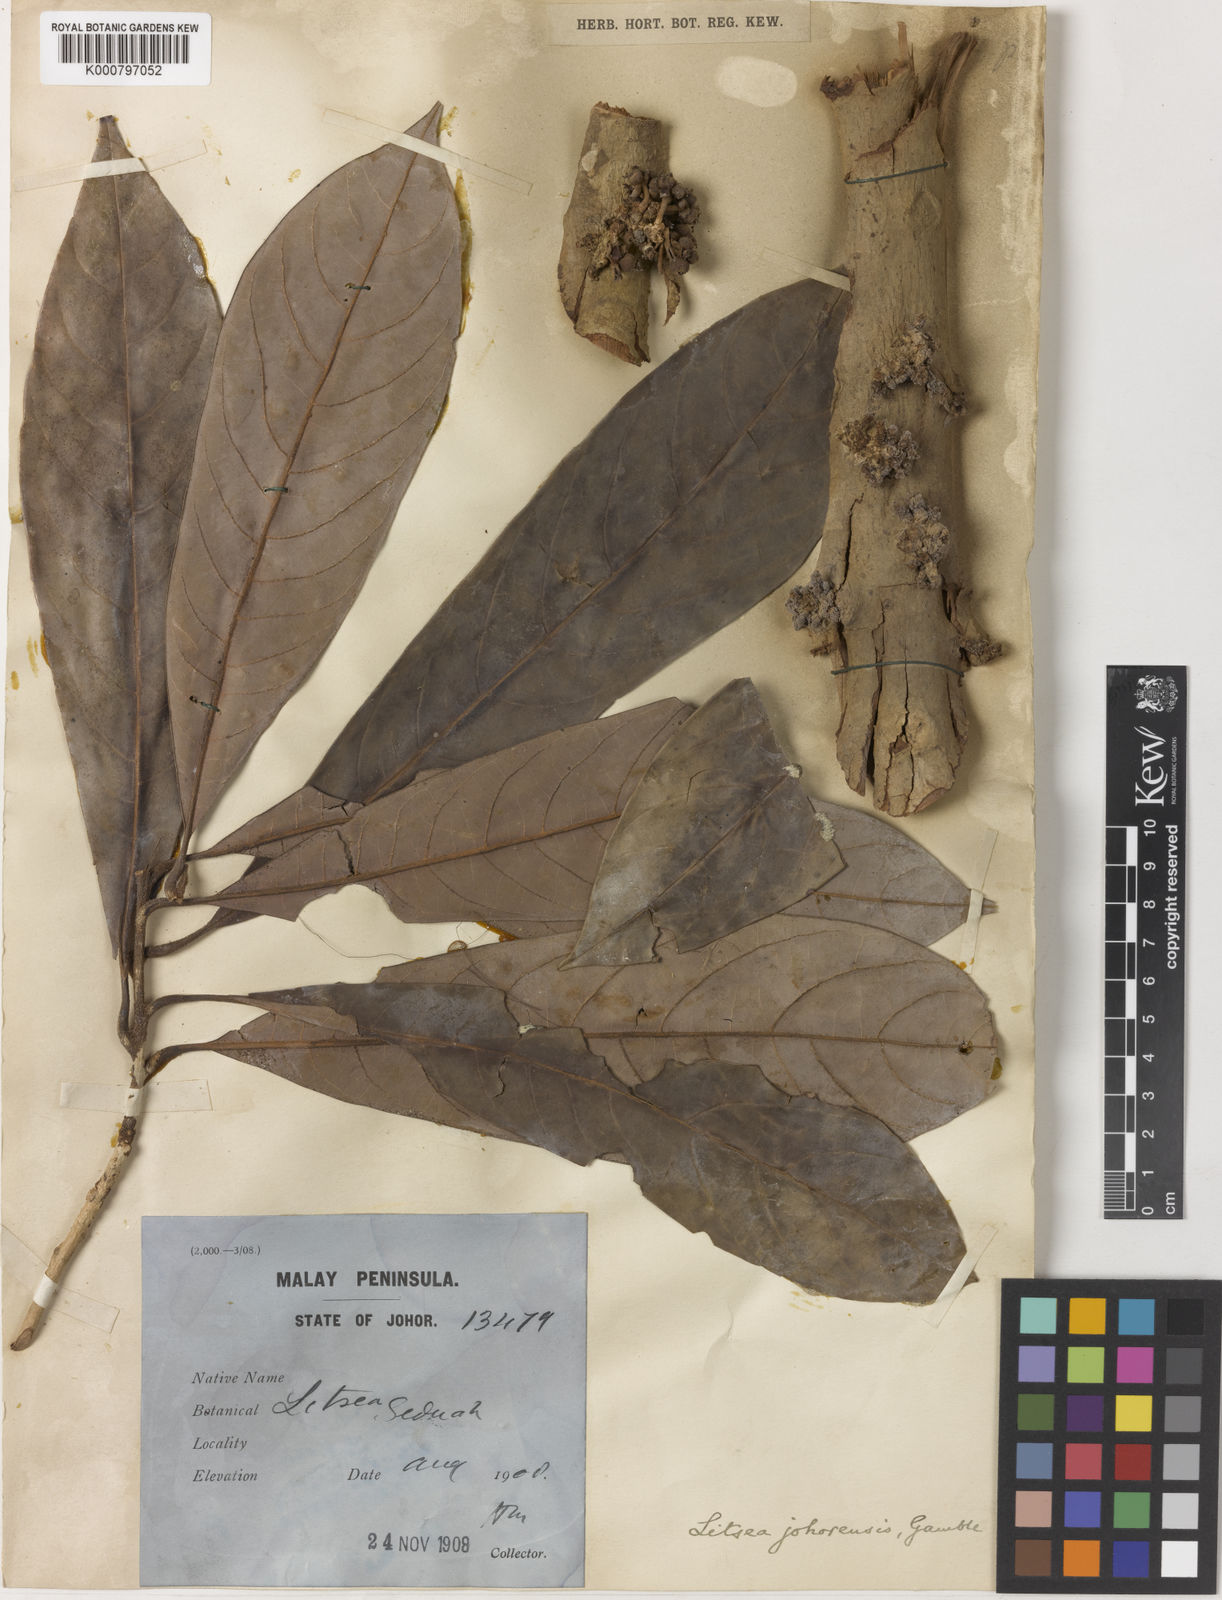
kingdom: Plantae
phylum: Tracheophyta
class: Magnoliopsida
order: Laurales
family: Lauraceae
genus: Litsea
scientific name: Litsea johorensis
